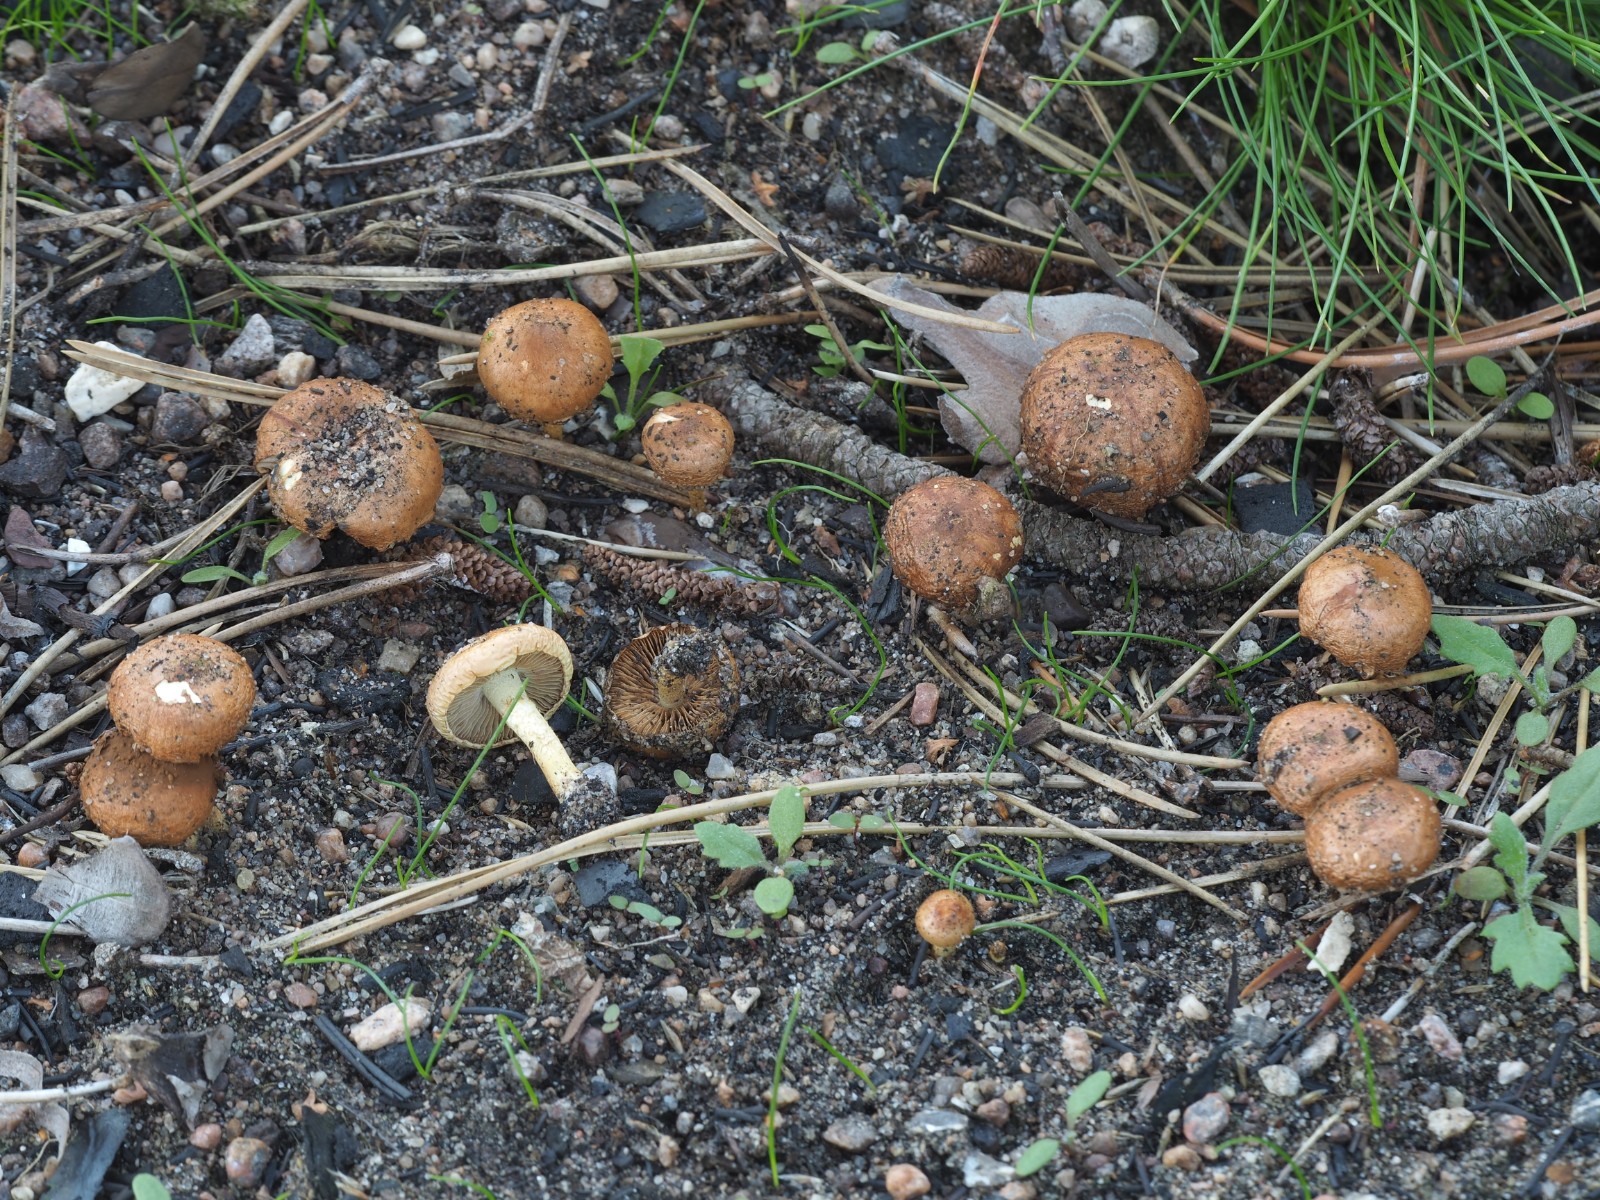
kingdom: Fungi
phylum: Basidiomycota
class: Agaricomycetes
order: Agaricales
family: Strophariaceae
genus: Pholiota
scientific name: Pholiota carbonaria
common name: kul-skælhat
